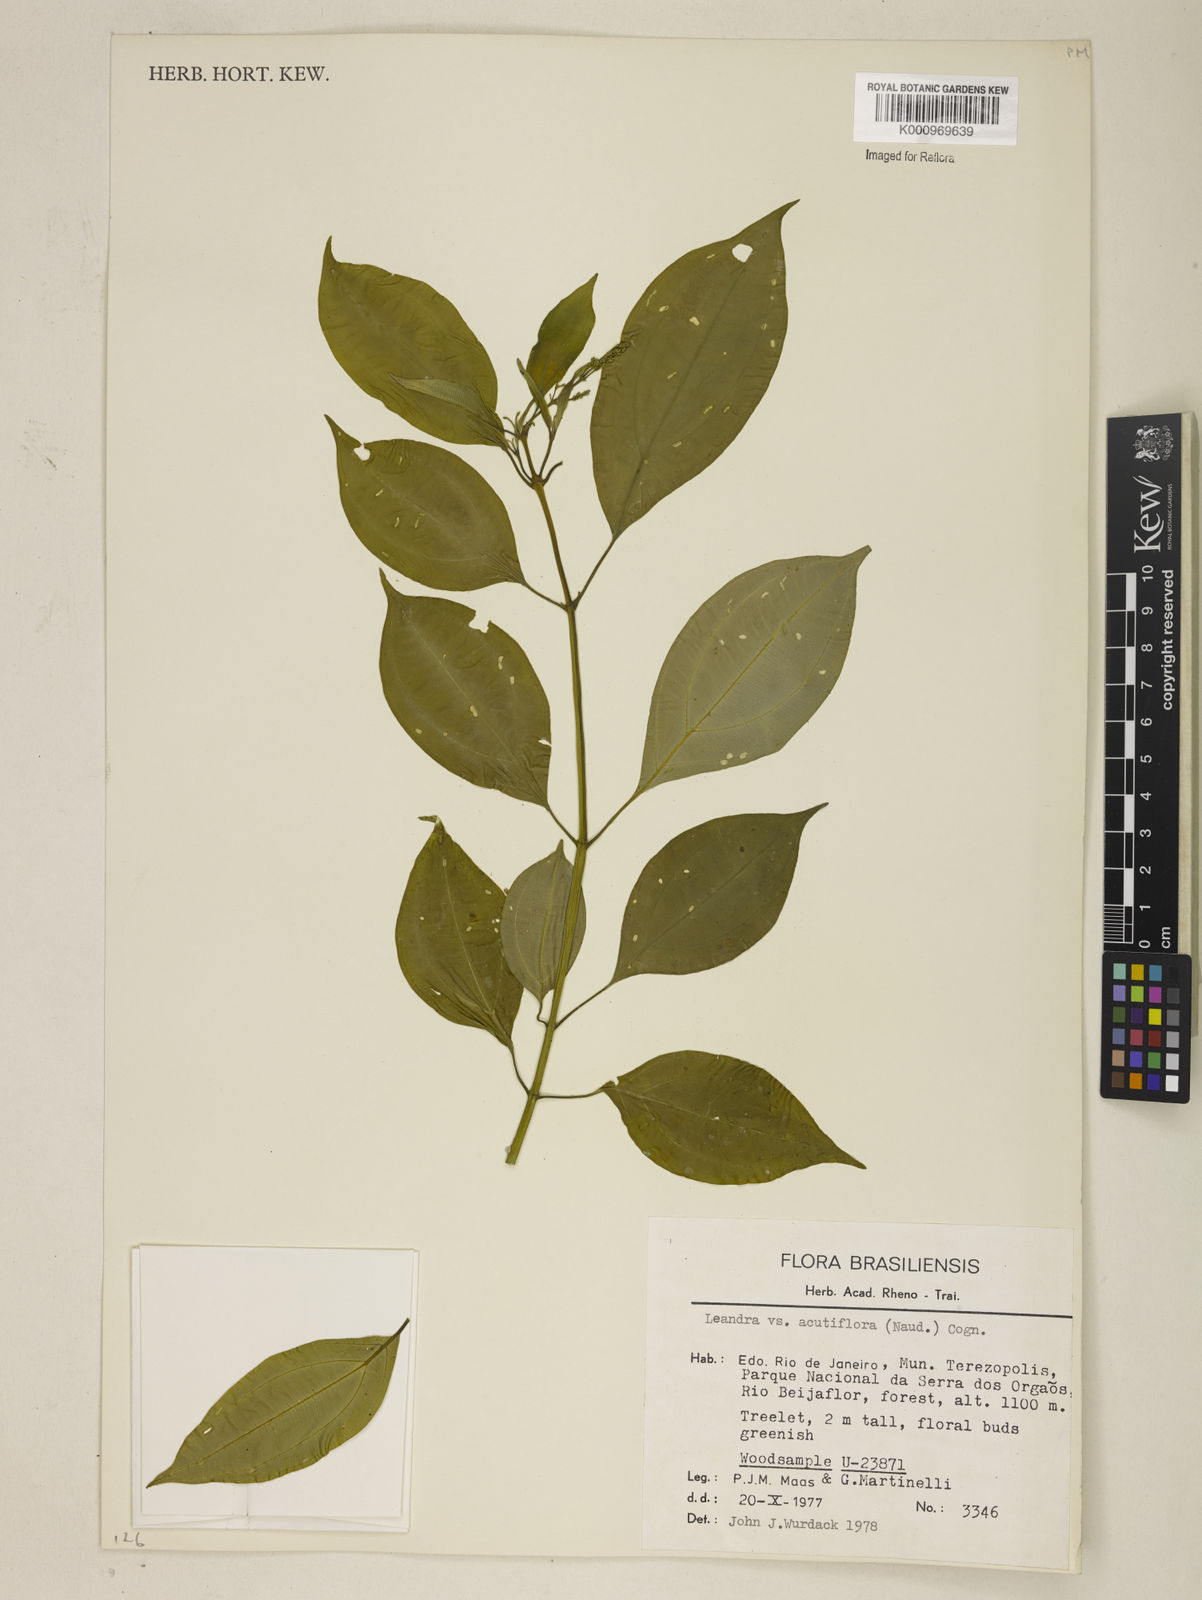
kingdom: Plantae
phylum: Tracheophyta
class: Magnoliopsida
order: Myrtales
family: Melastomataceae
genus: Miconia
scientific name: Miconia acutiflora
